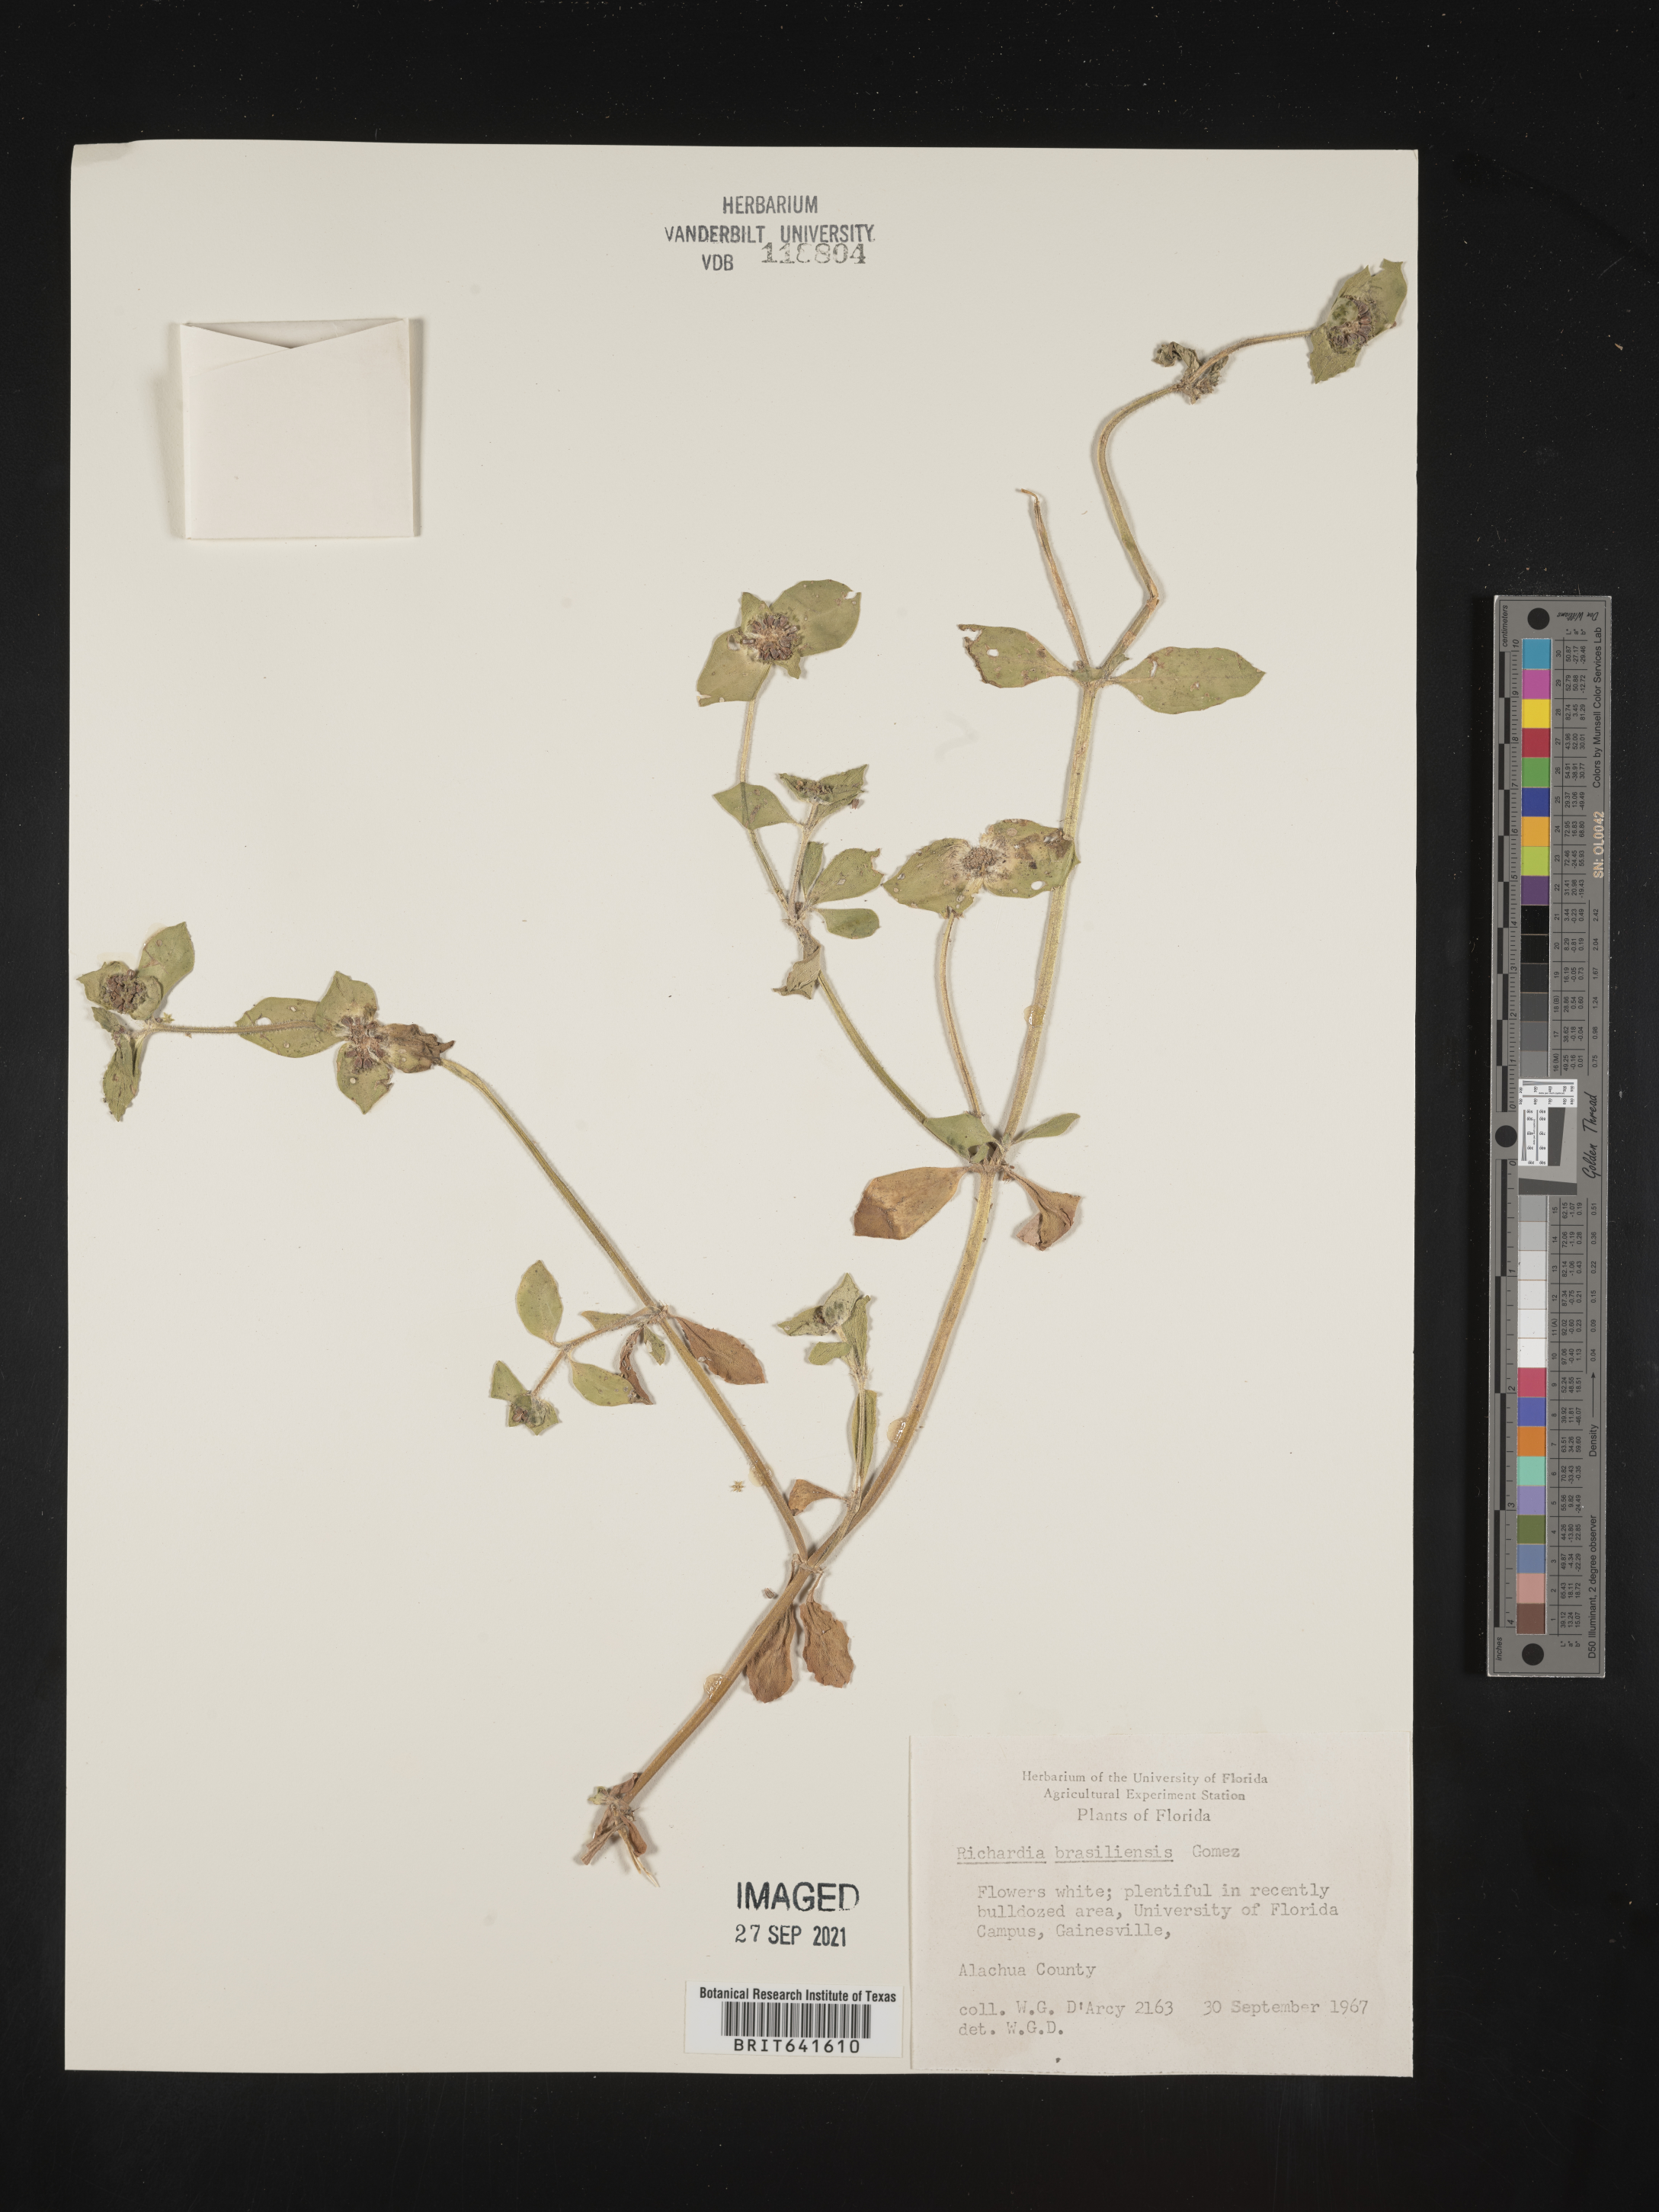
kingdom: Plantae
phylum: Tracheophyta
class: Magnoliopsida
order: Gentianales
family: Rubiaceae
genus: Richardia
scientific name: Richardia brasiliensis
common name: Tropical mexican clover
